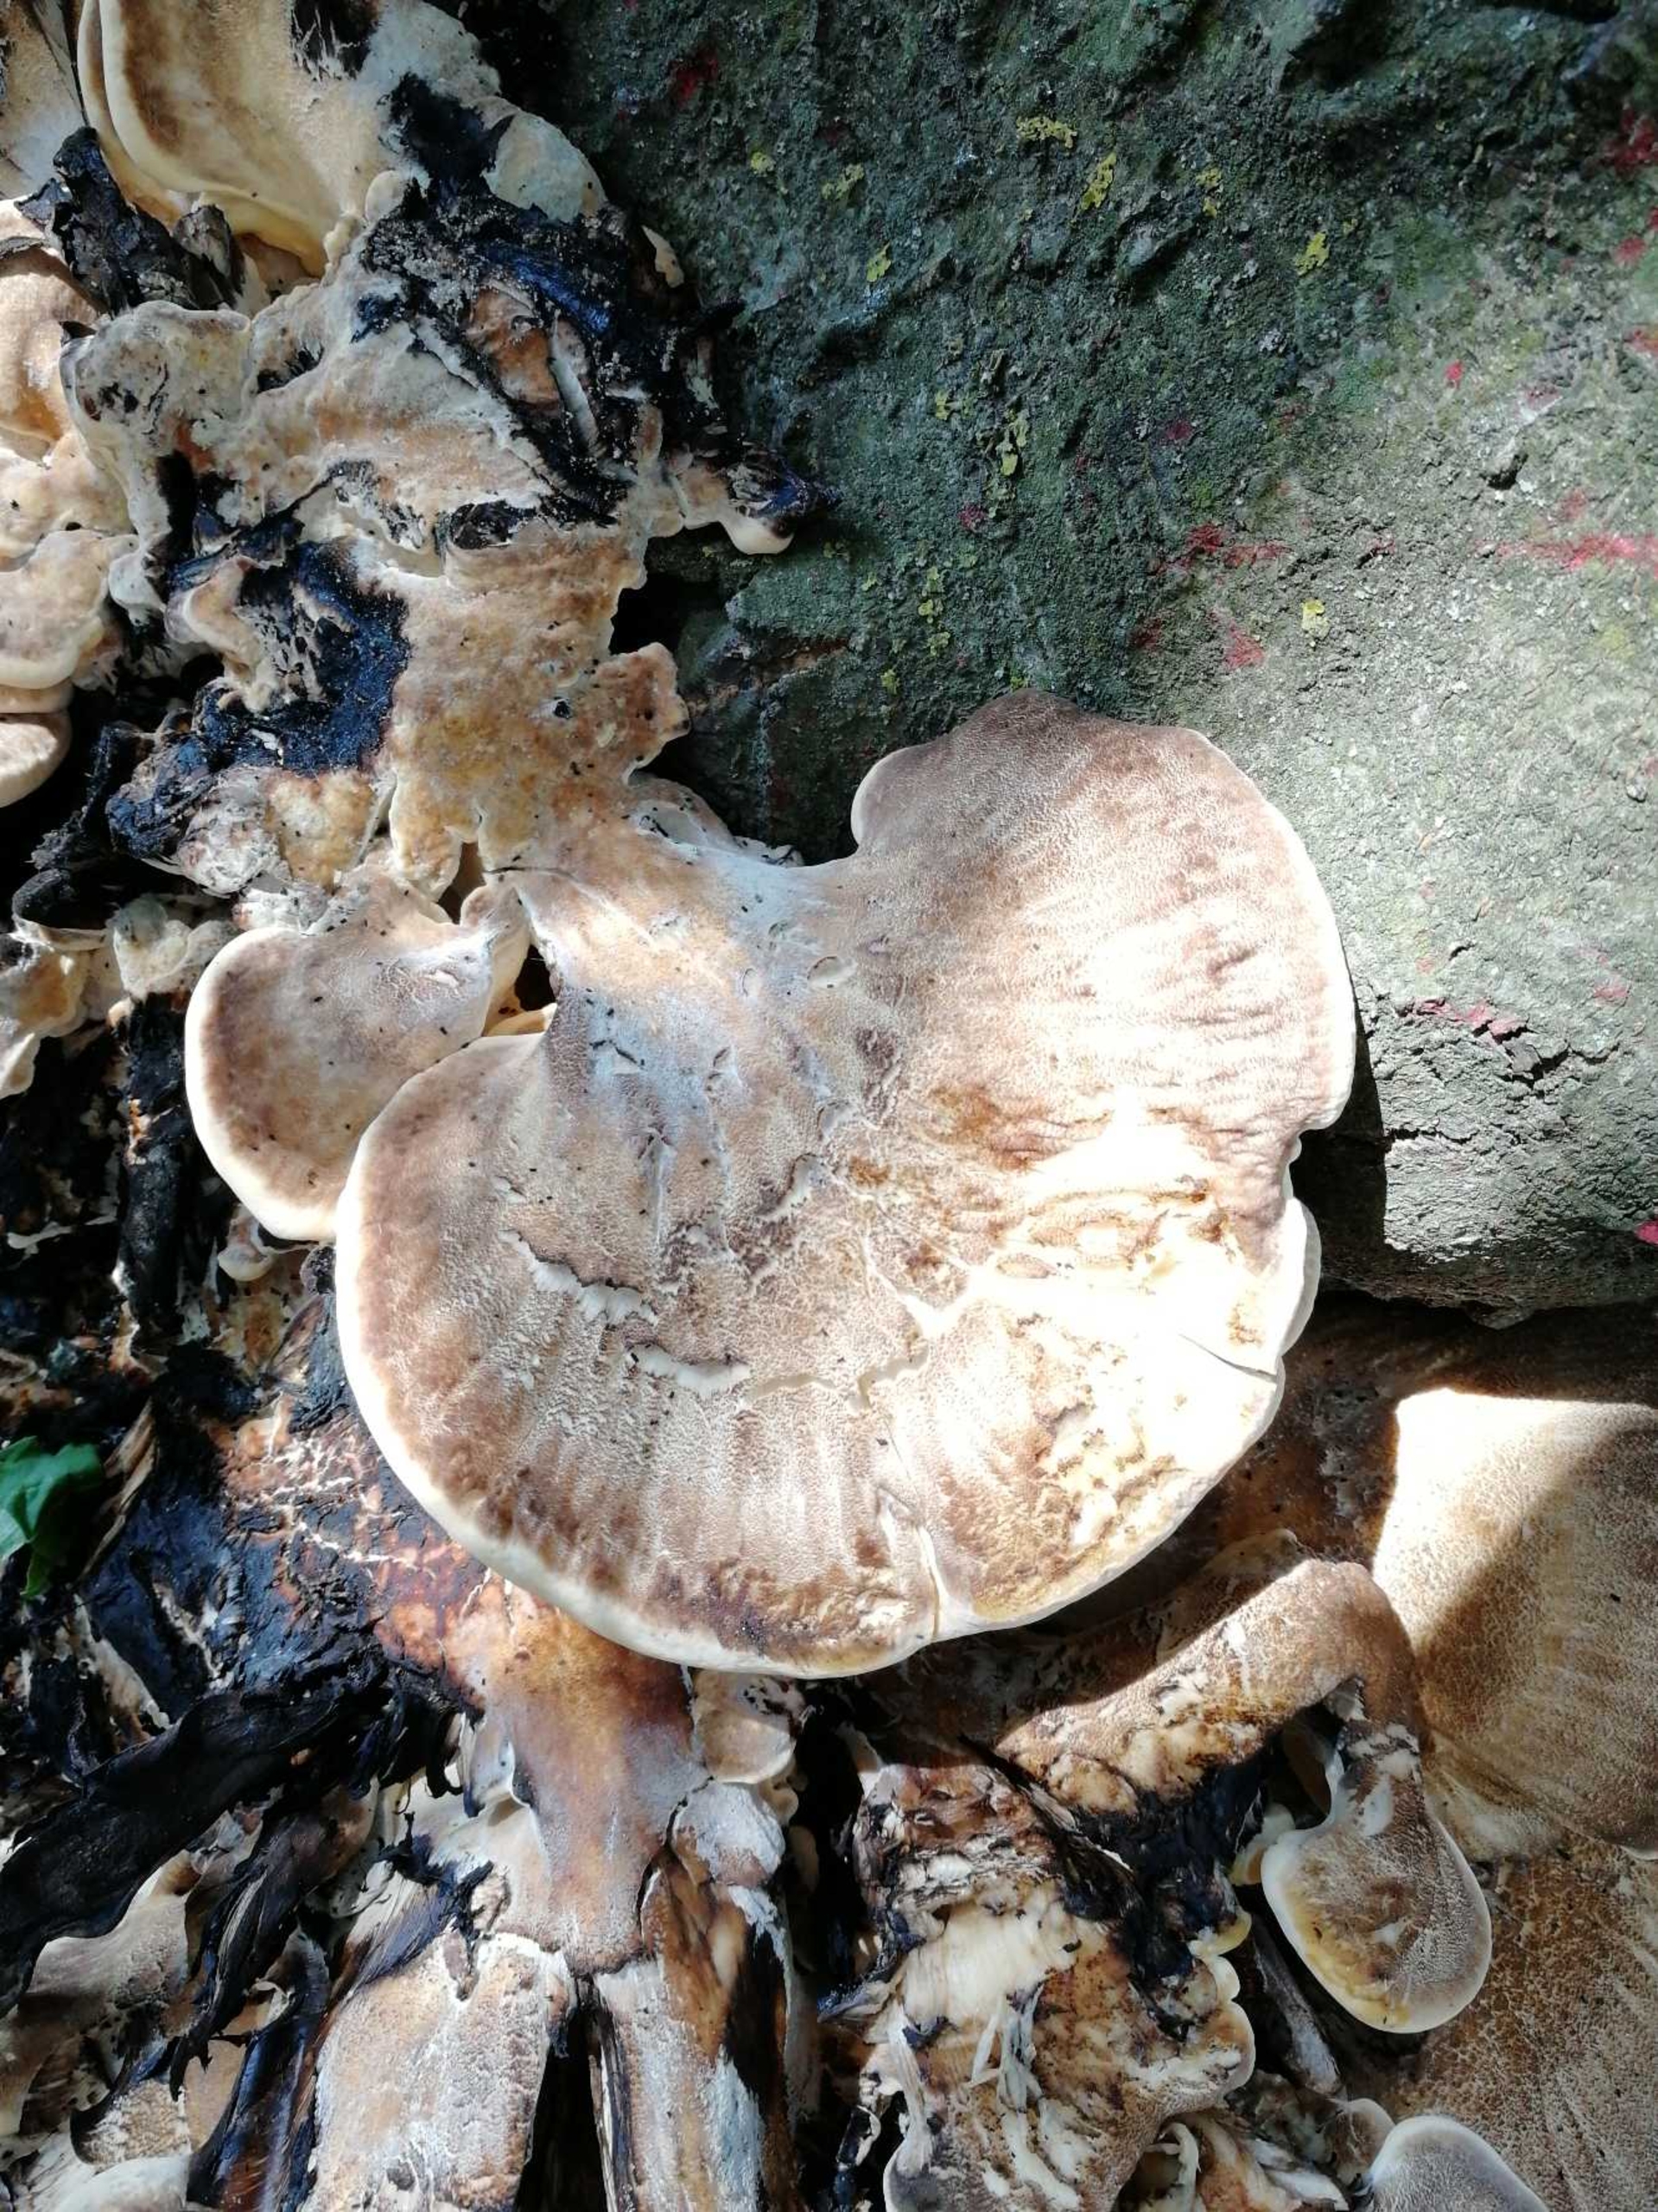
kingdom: Fungi
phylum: Basidiomycota
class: Agaricomycetes
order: Polyporales
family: Meripilaceae
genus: Meripilus
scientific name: Meripilus giganteus
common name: Kæmpeporesvamp
